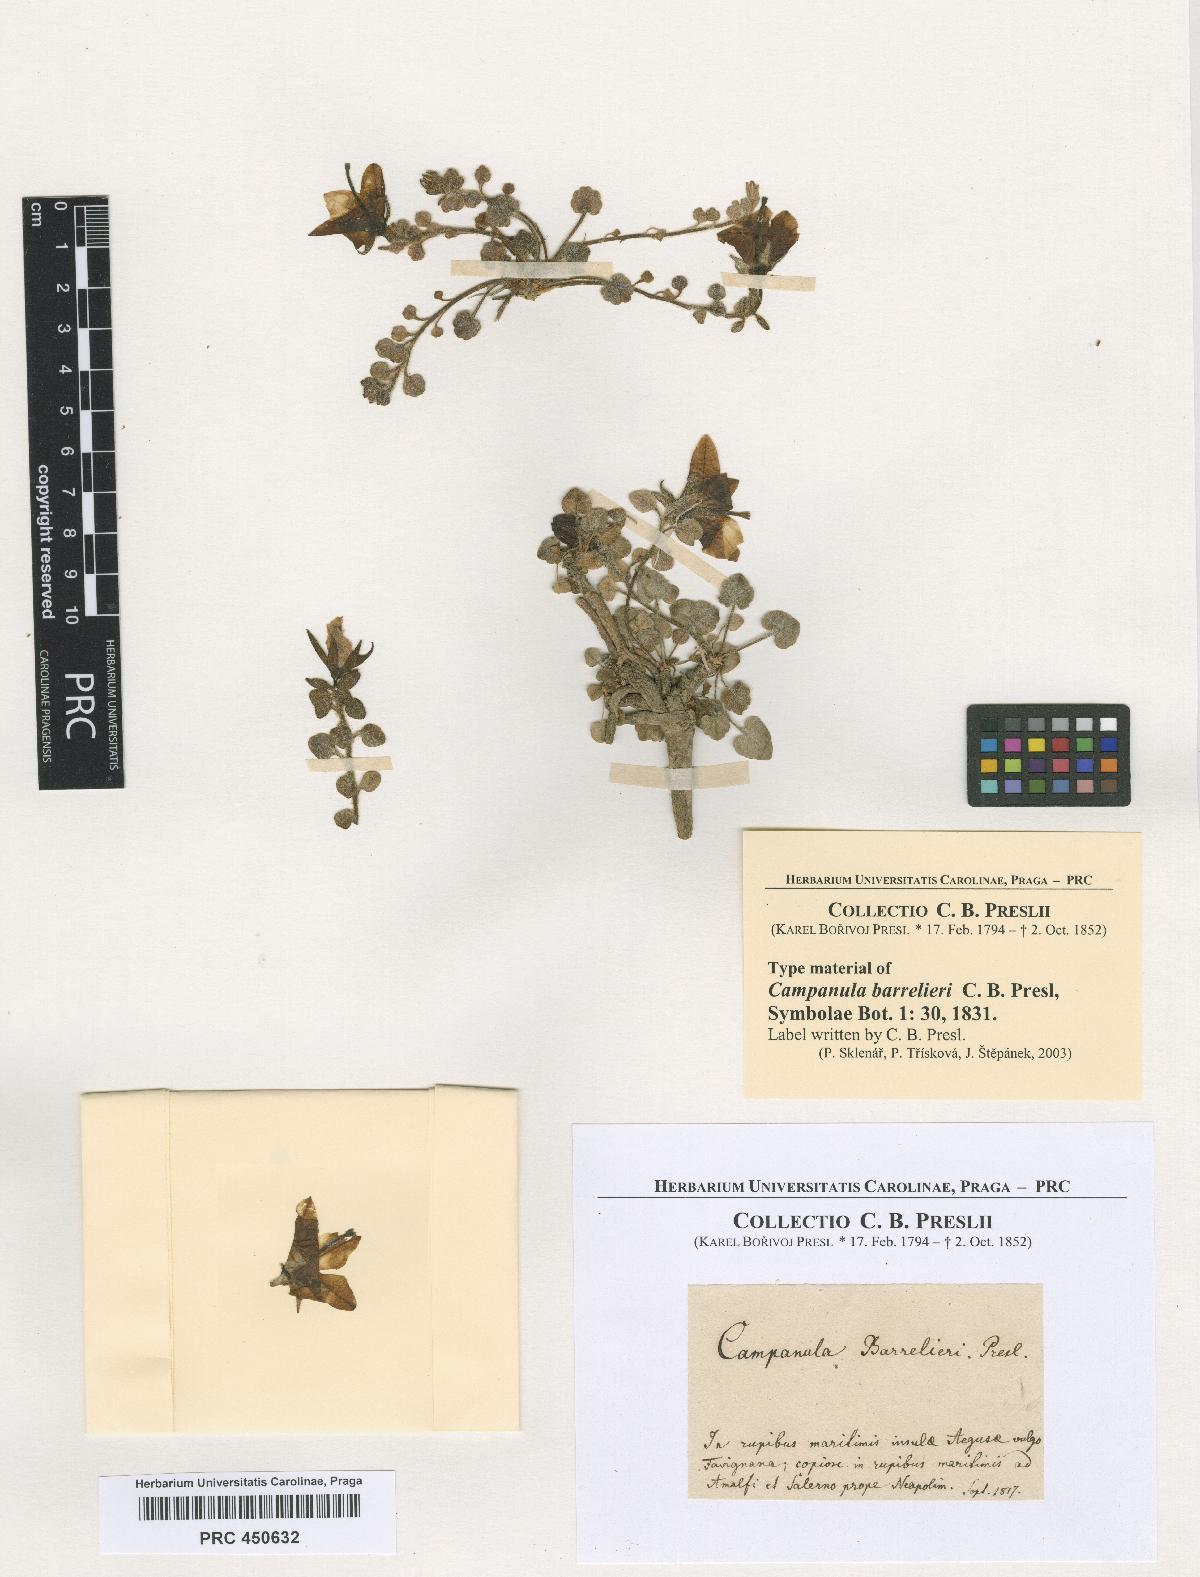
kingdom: Plantae
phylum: Tracheophyta
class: Magnoliopsida
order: Asterales
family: Campanulaceae
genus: Campanula
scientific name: Campanula fragilis
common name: Italian bellflower
